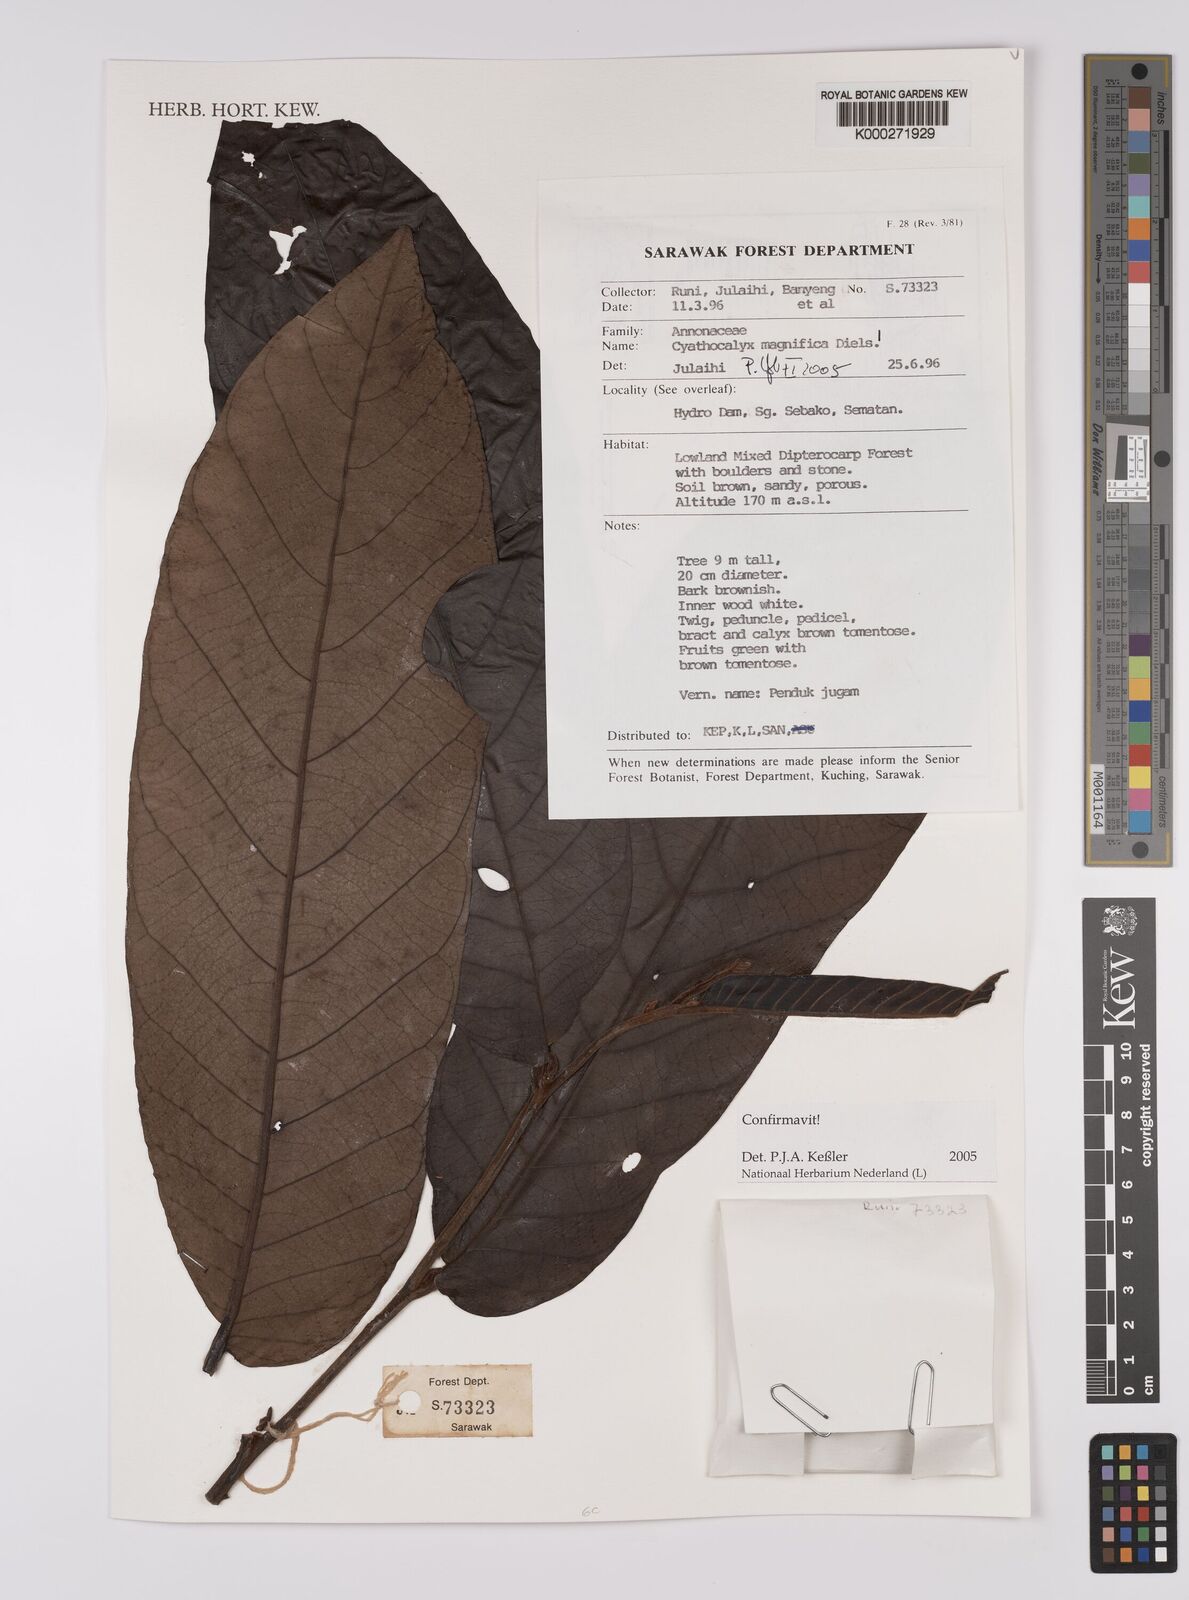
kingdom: Plantae
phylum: Tracheophyta
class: Magnoliopsida
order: Magnoliales
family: Annonaceae
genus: Drepananthus
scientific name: Drepananthus magnificus
